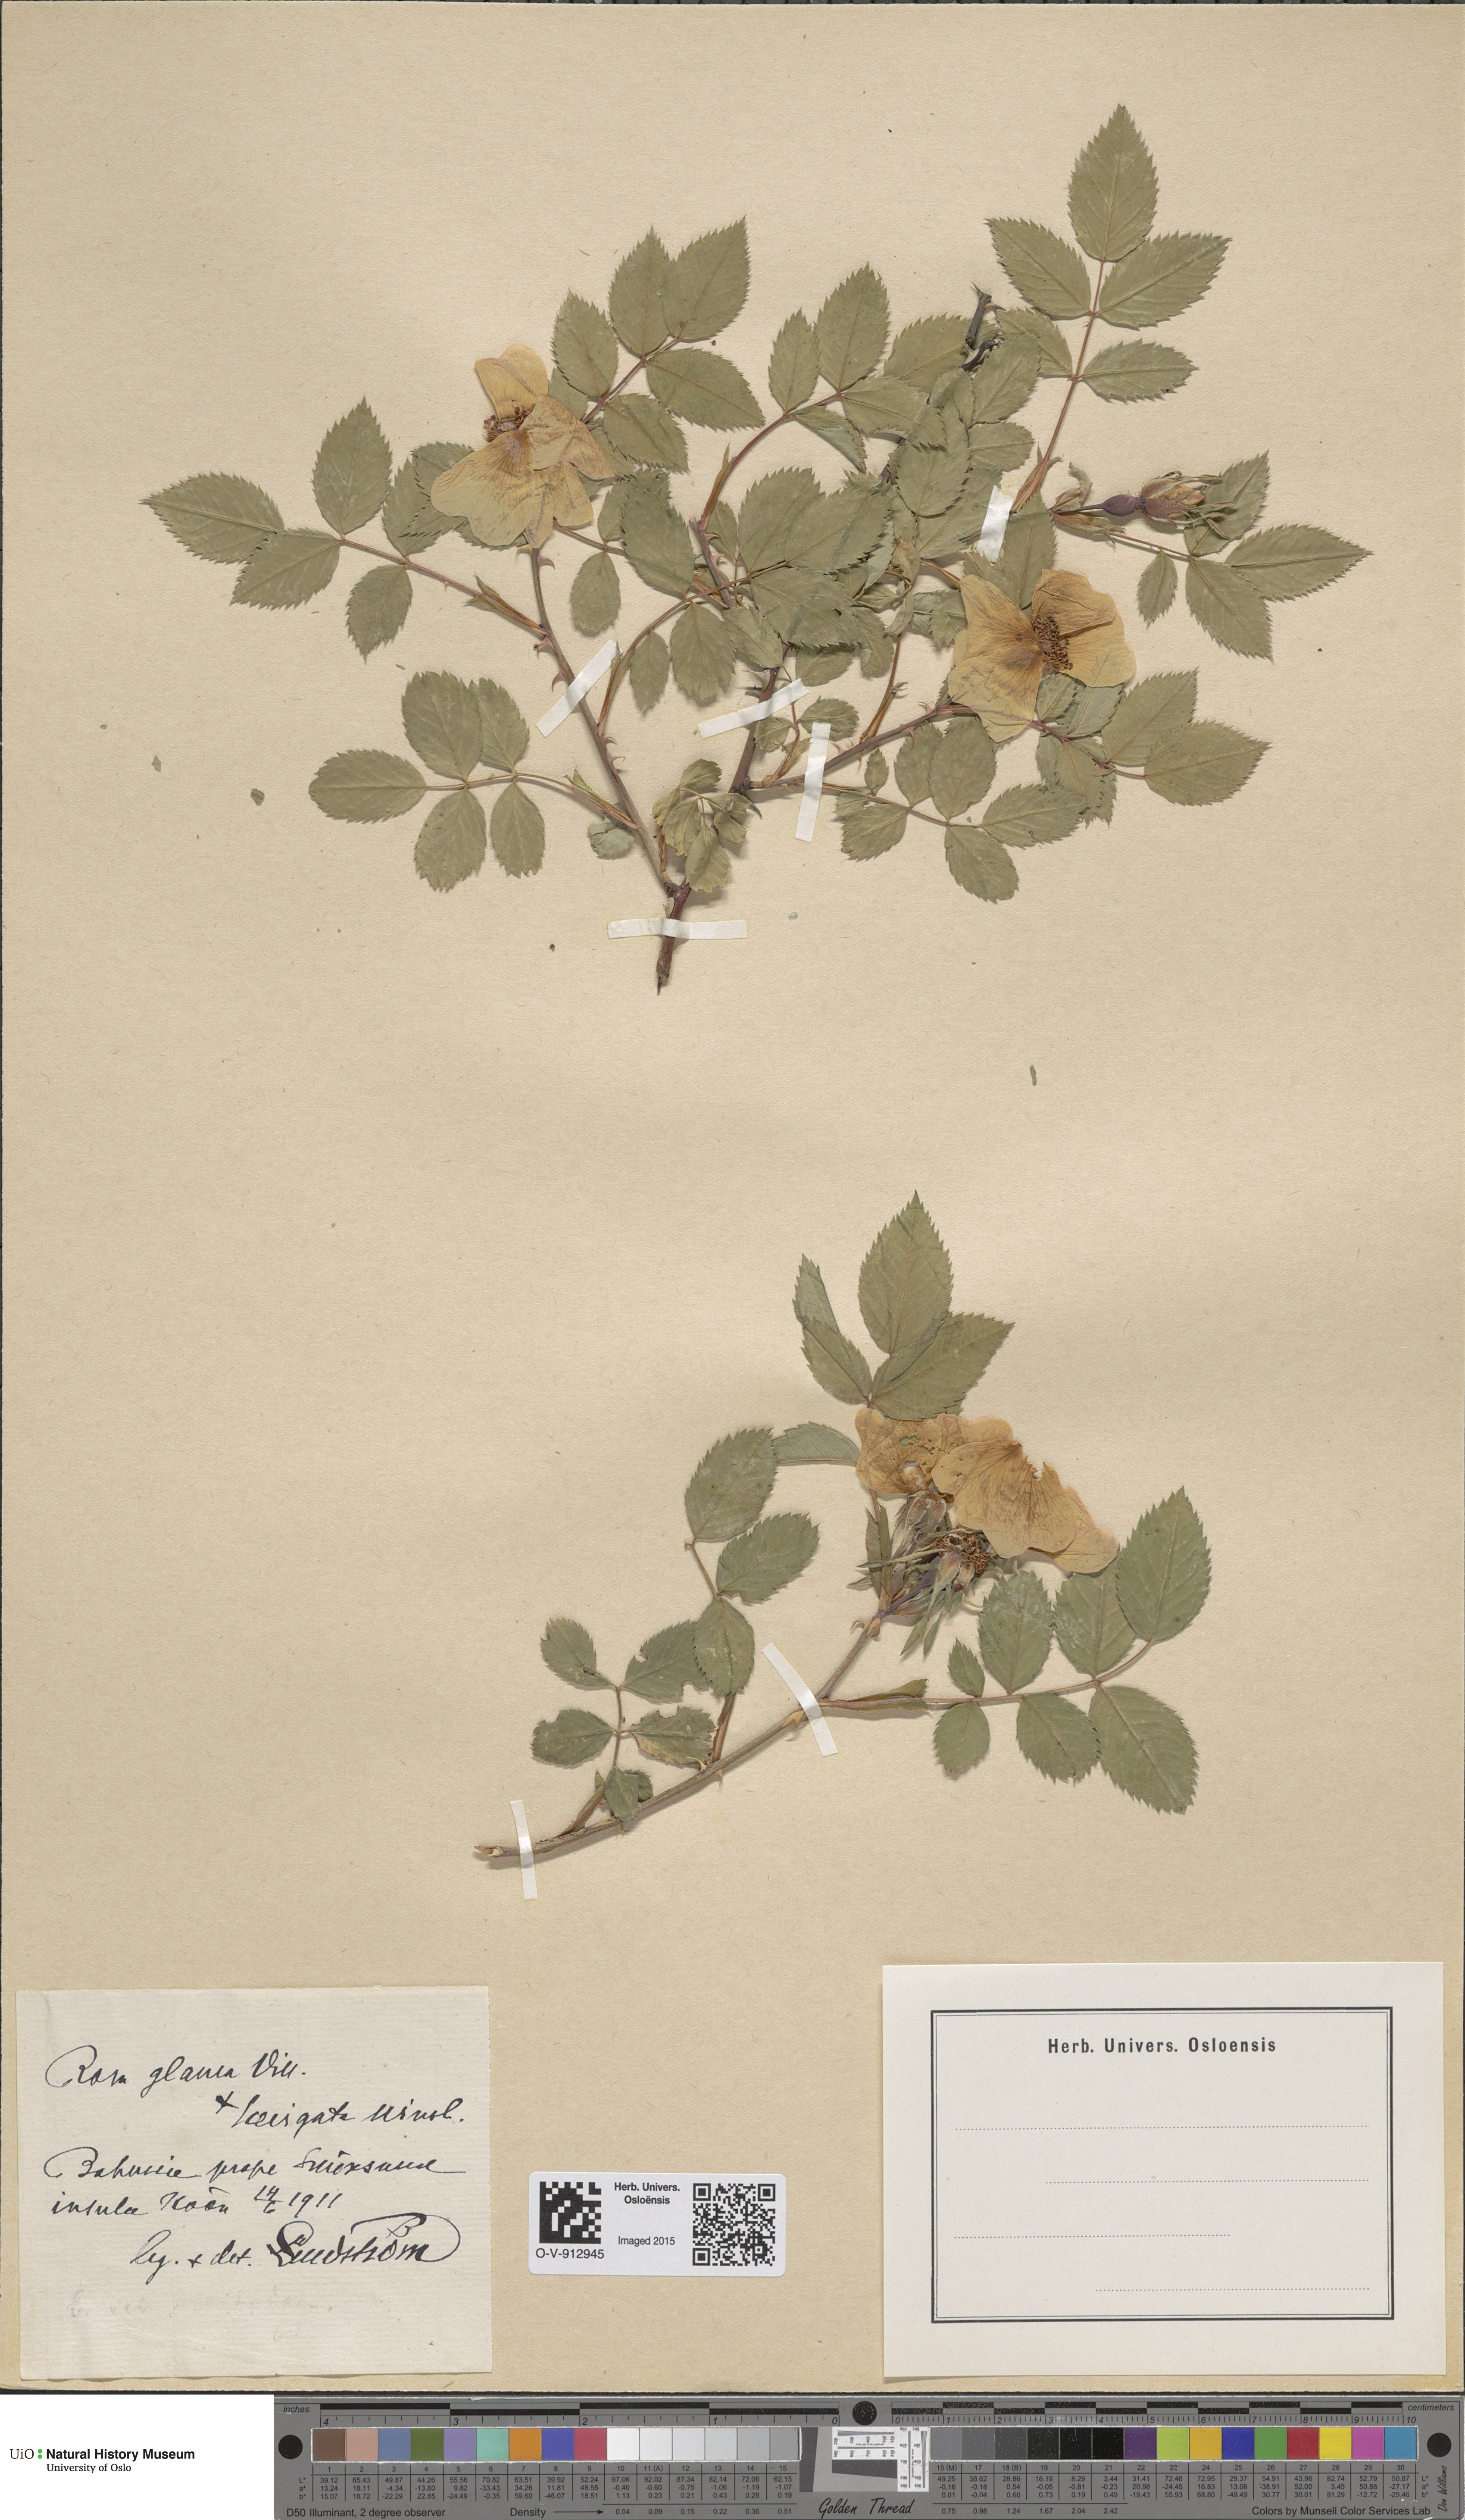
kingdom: Plantae
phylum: Tracheophyta
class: Magnoliopsida
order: Rosales
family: Rosaceae
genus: Rosa
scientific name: Rosa glauca
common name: Redleaf rose
